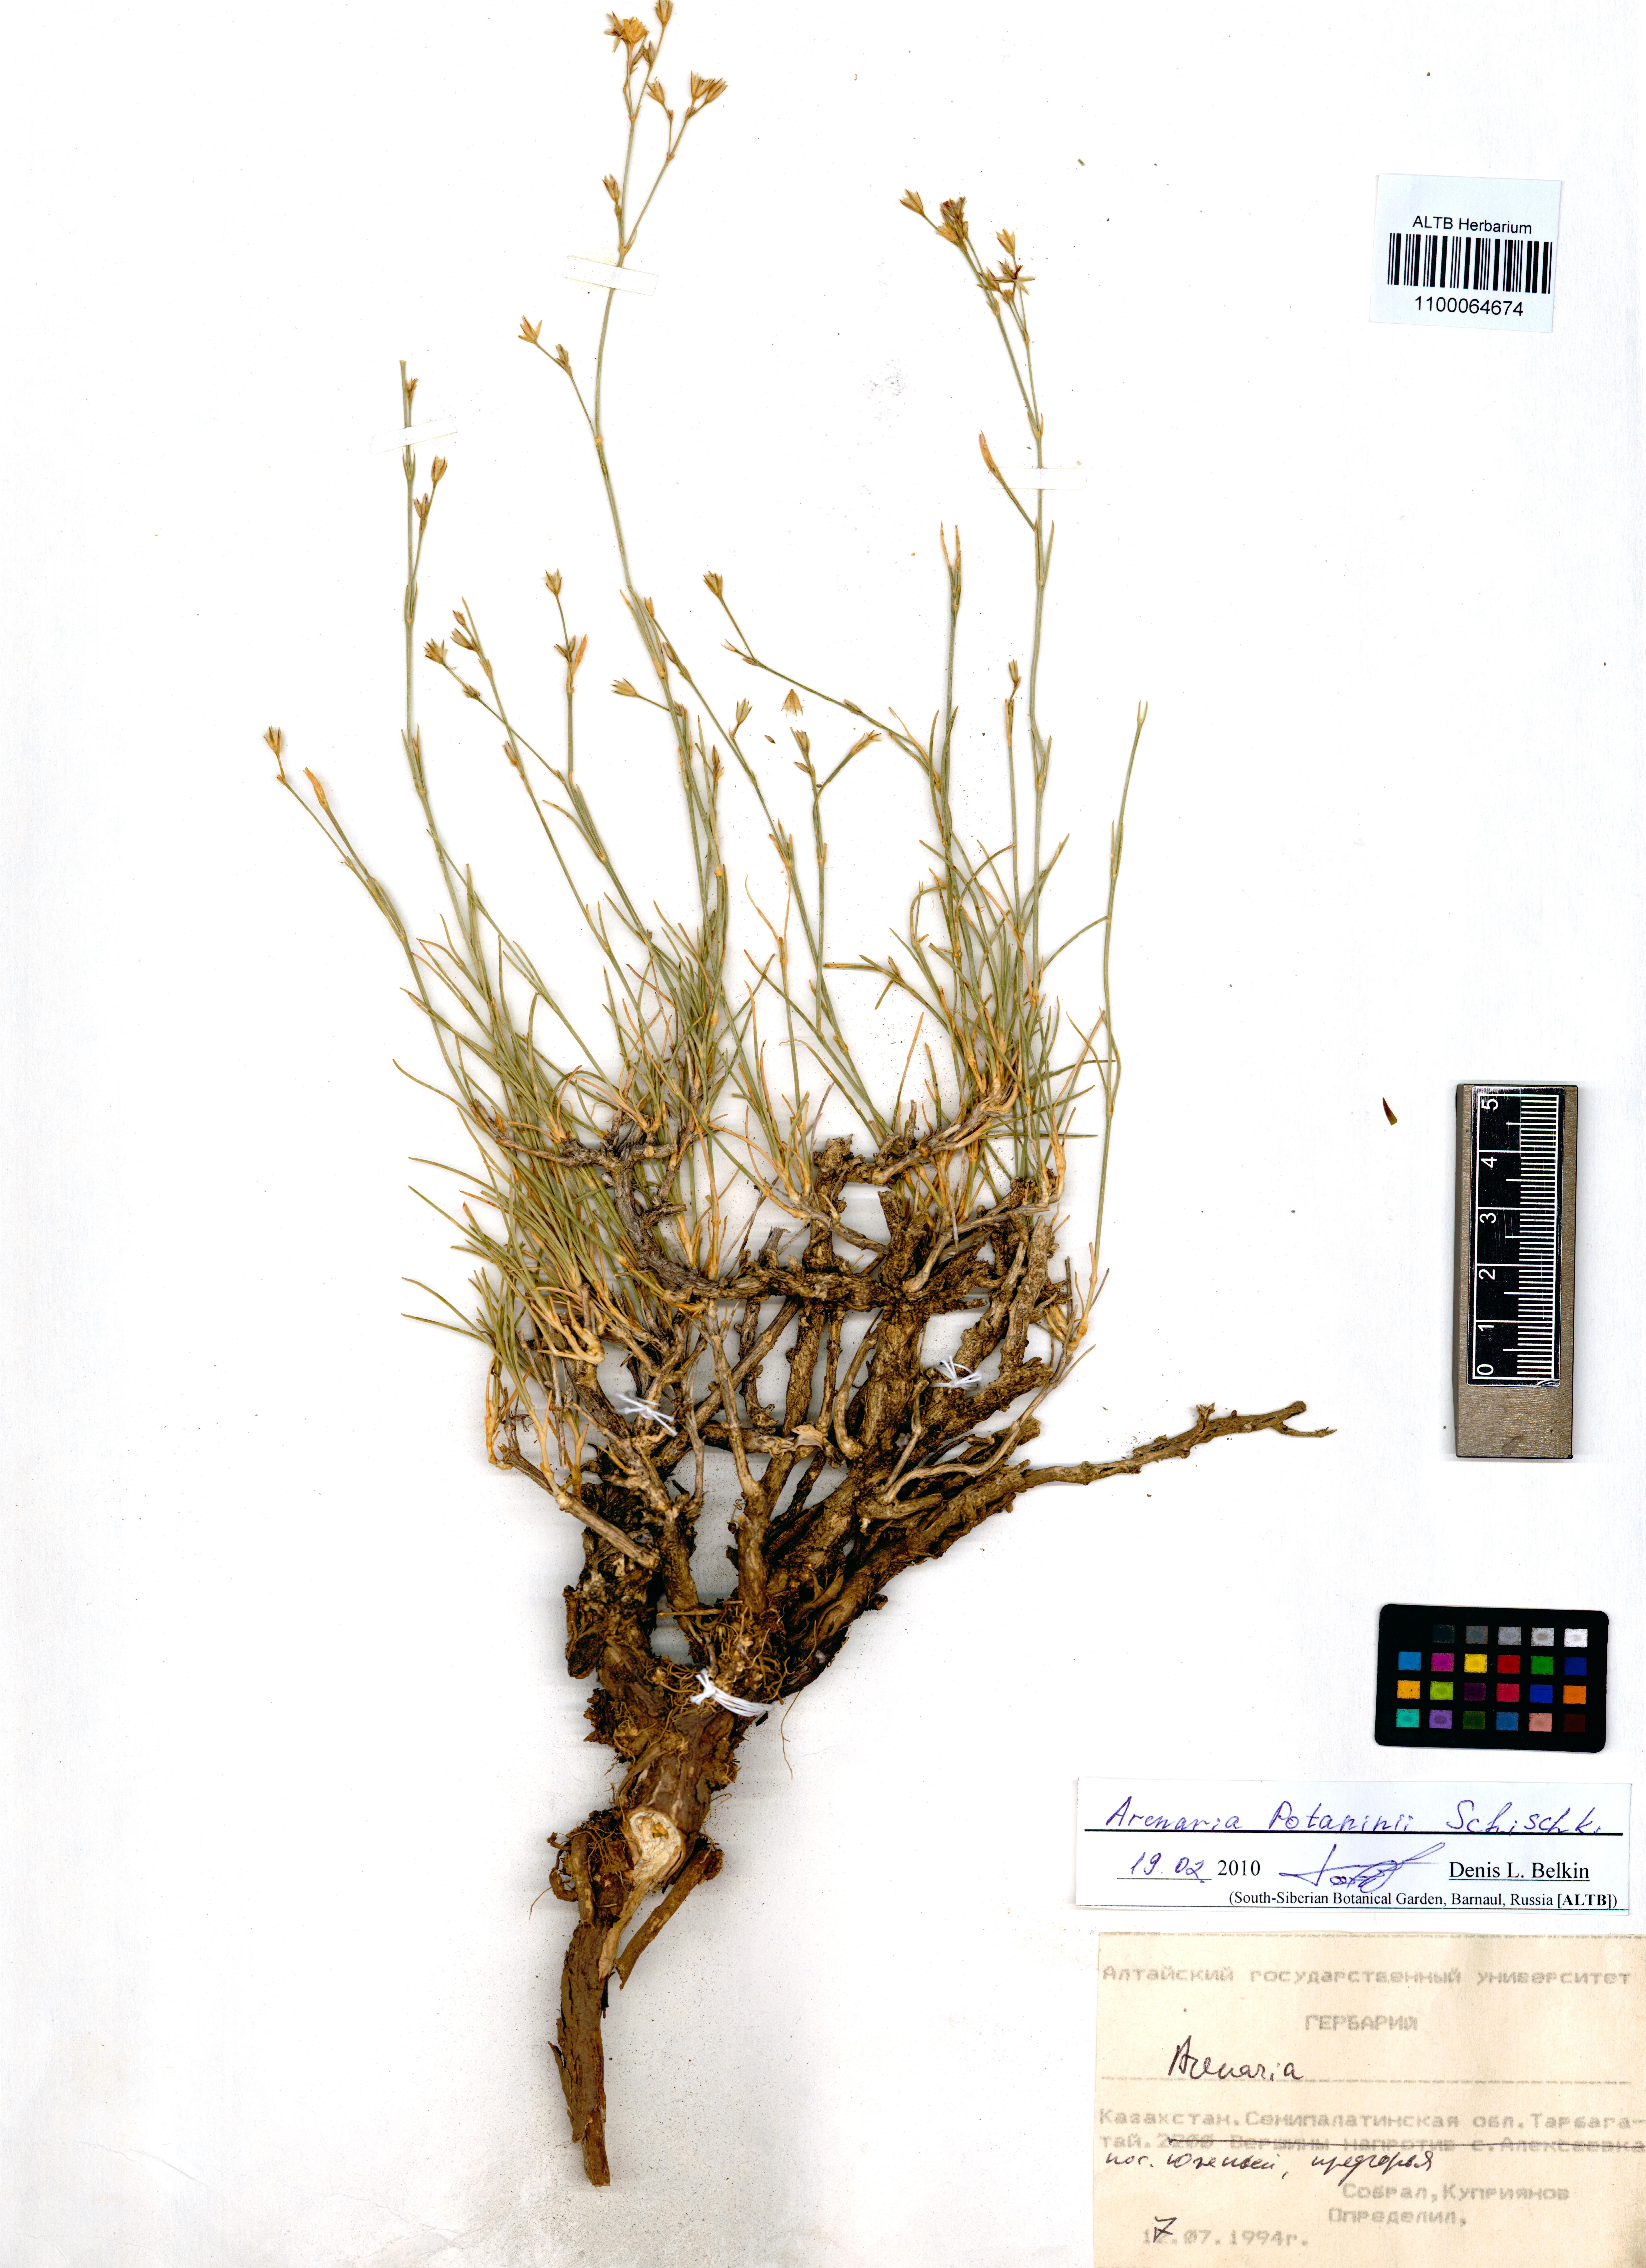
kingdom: Plantae
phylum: Tracheophyta
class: Magnoliopsida
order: Caryophyllales
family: Caryophyllaceae
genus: Eremogone
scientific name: Eremogone potaninii
